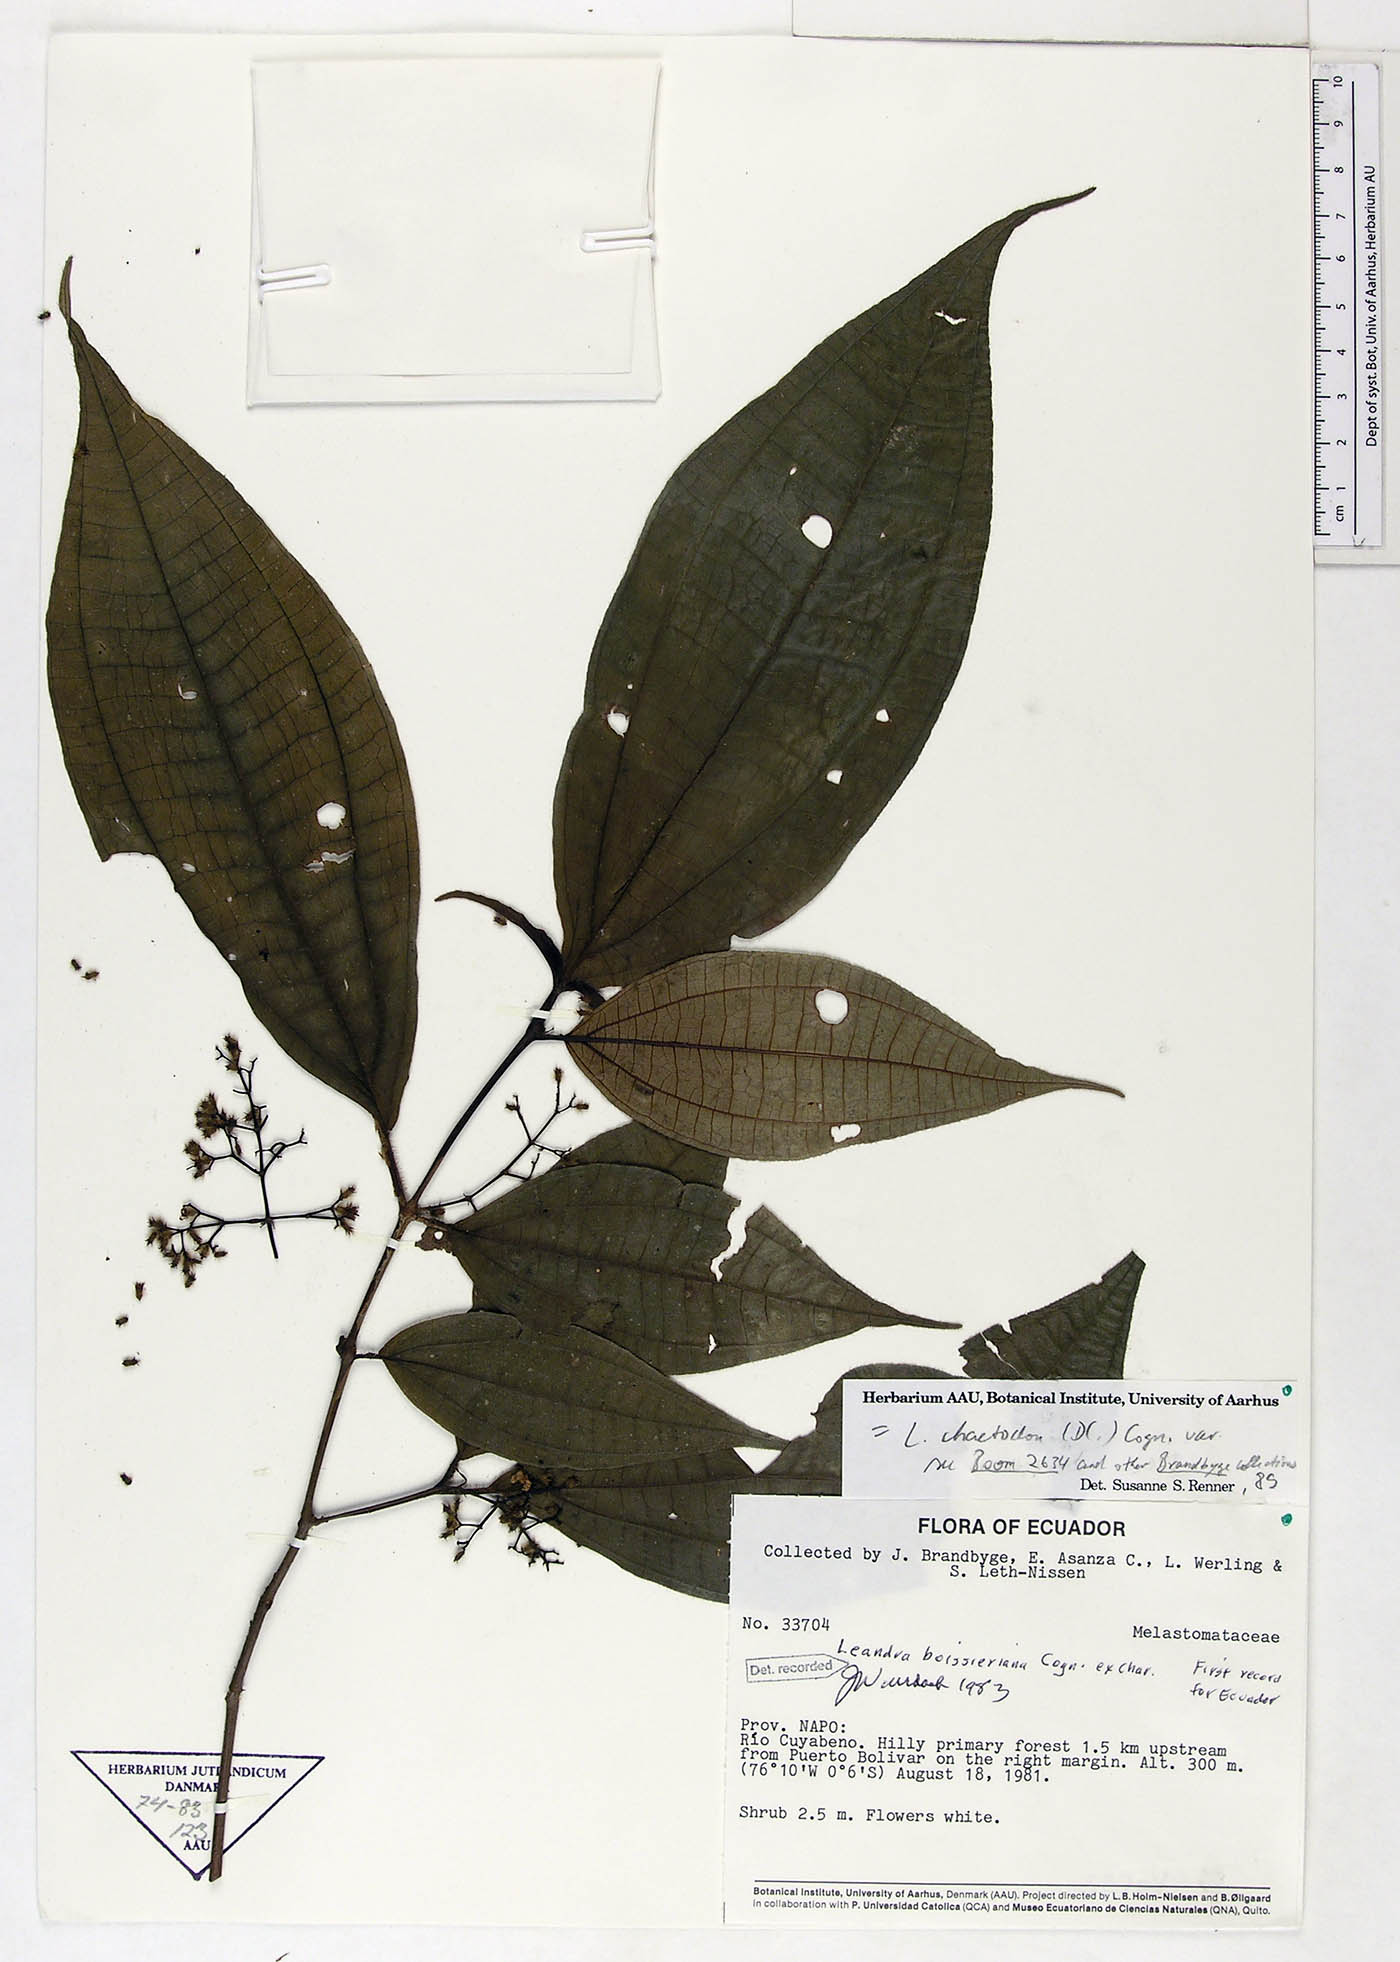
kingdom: Plantae
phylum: Tracheophyta
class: Magnoliopsida
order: Myrtales
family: Melastomataceae
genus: Miconia
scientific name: Miconia pierreboissieriana
